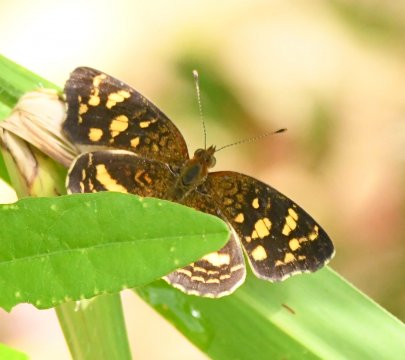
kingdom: Animalia
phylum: Arthropoda
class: Insecta
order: Lepidoptera
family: Nymphalidae
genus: Anthanassa
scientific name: Anthanassa drusilla
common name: Orange-patched Crescent
